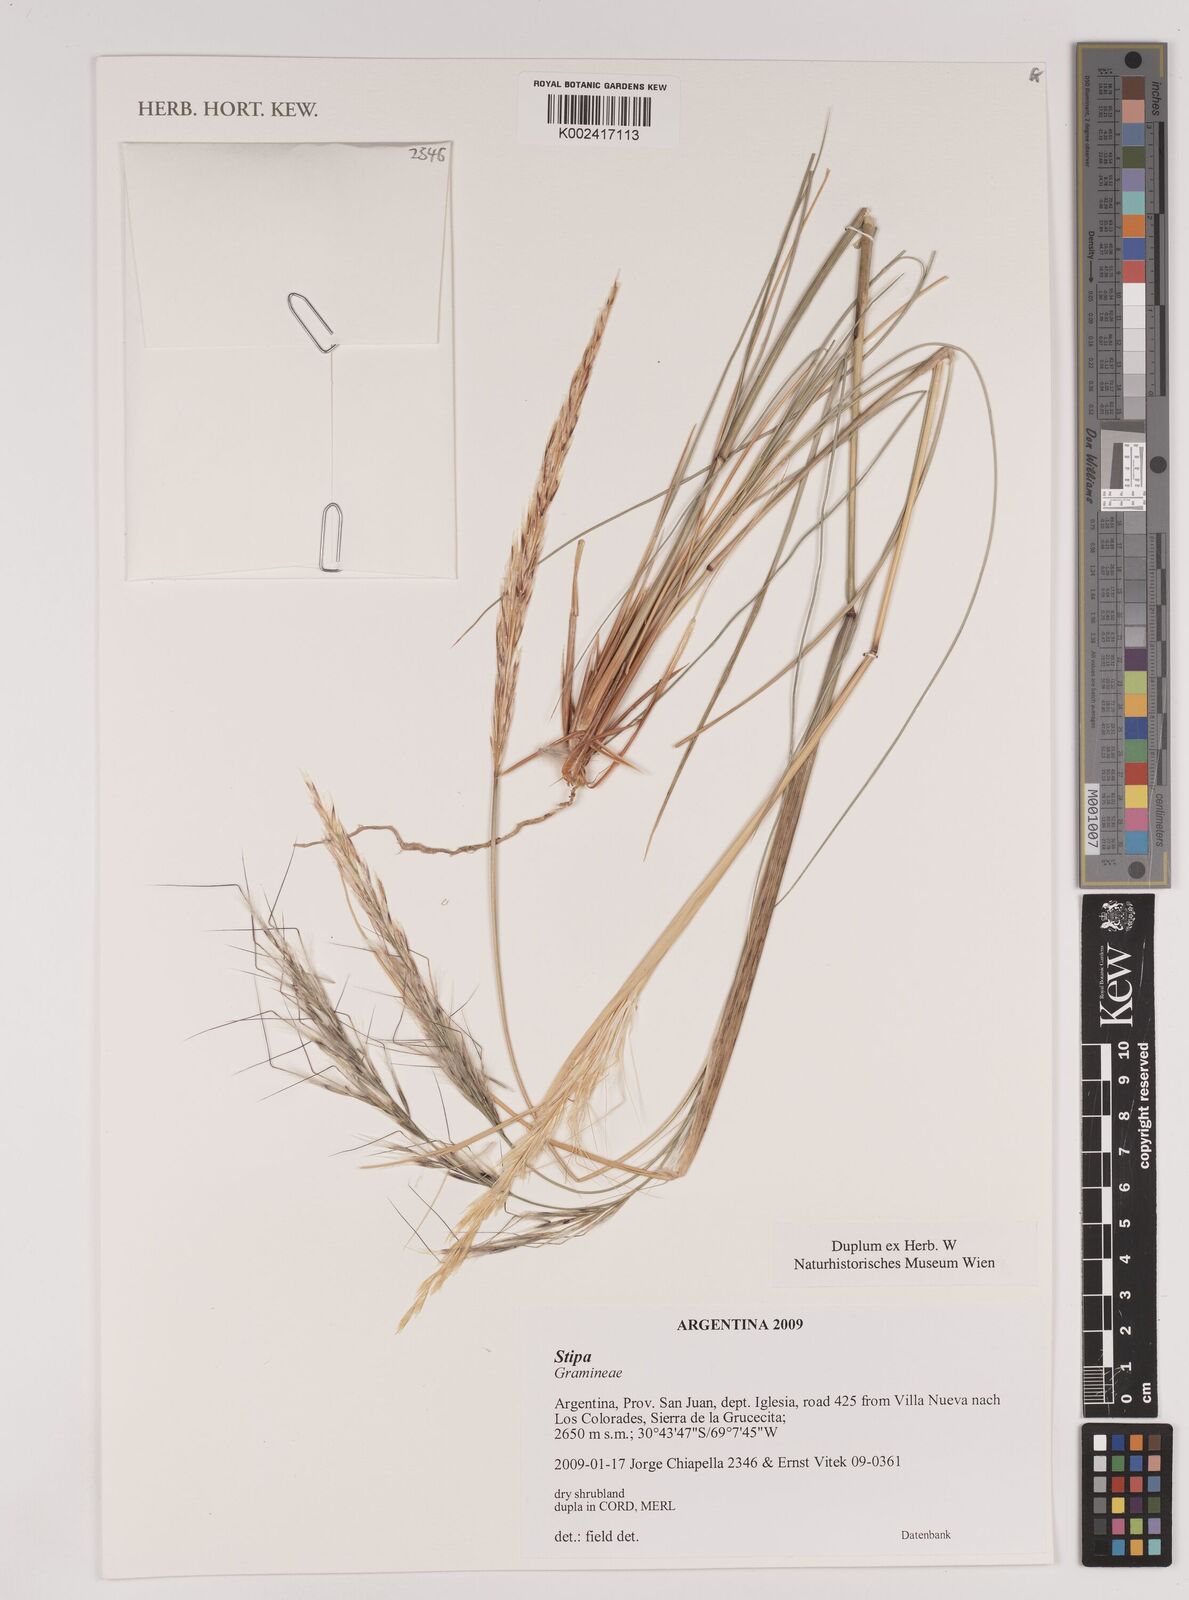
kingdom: Plantae
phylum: Tracheophyta
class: Liliopsida
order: Poales
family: Poaceae
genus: Stipa
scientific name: Stipa
